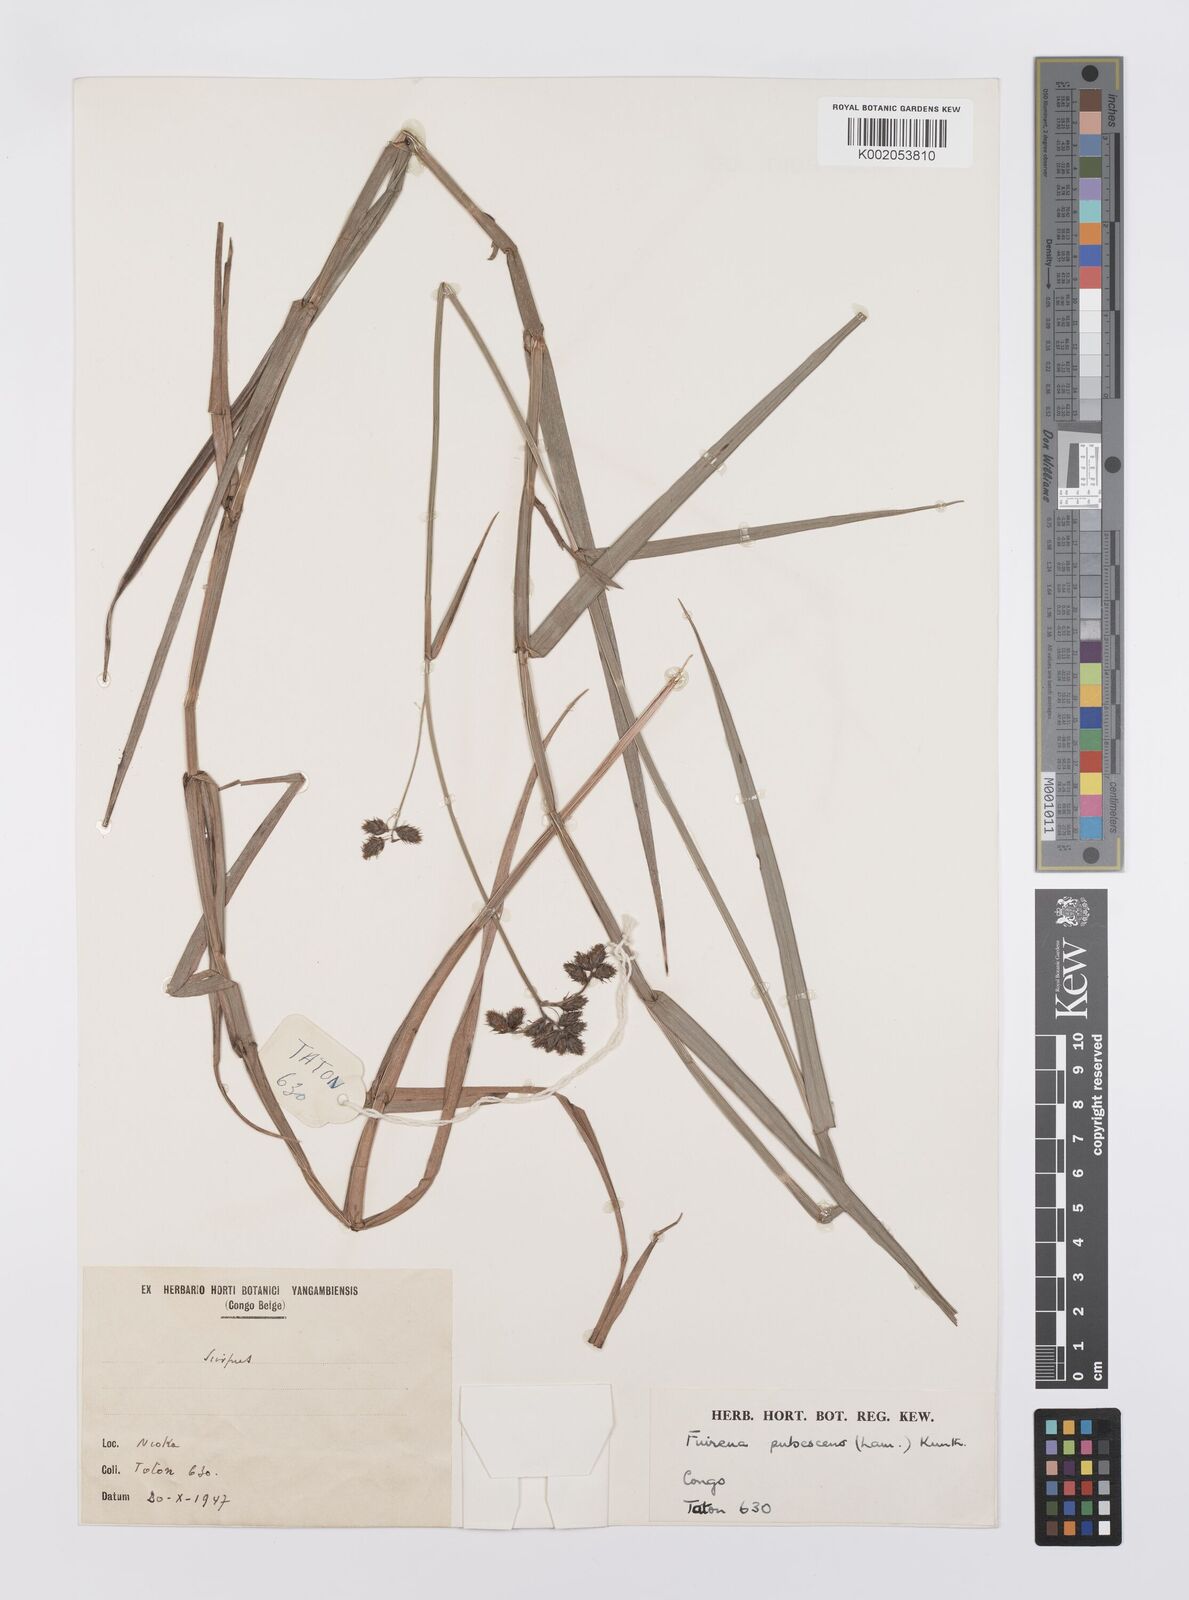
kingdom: Plantae
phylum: Tracheophyta
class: Liliopsida
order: Poales
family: Cyperaceae
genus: Fuirena
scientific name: Fuirena pubescens
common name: Hairy sedge
